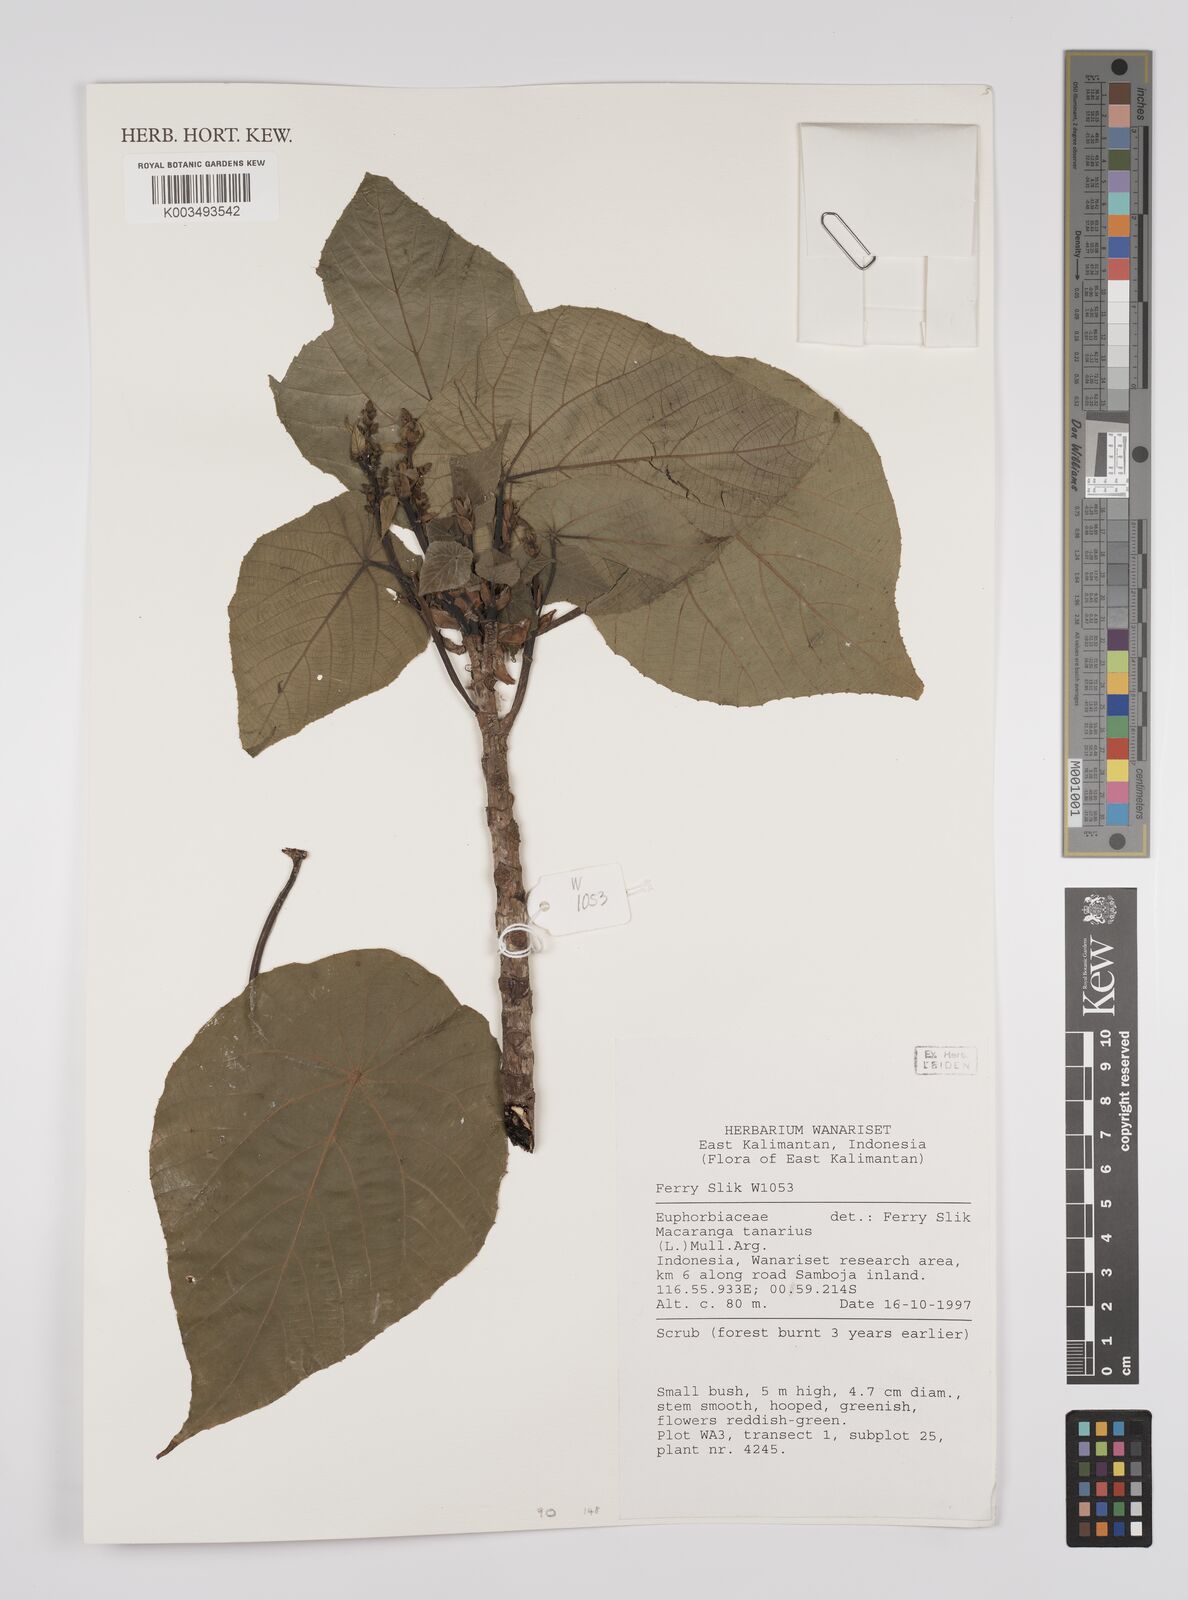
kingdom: Plantae
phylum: Tracheophyta
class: Magnoliopsida
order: Malpighiales
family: Euphorbiaceae
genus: Macaranga
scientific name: Macaranga tanarius
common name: Parasol leaf tree
